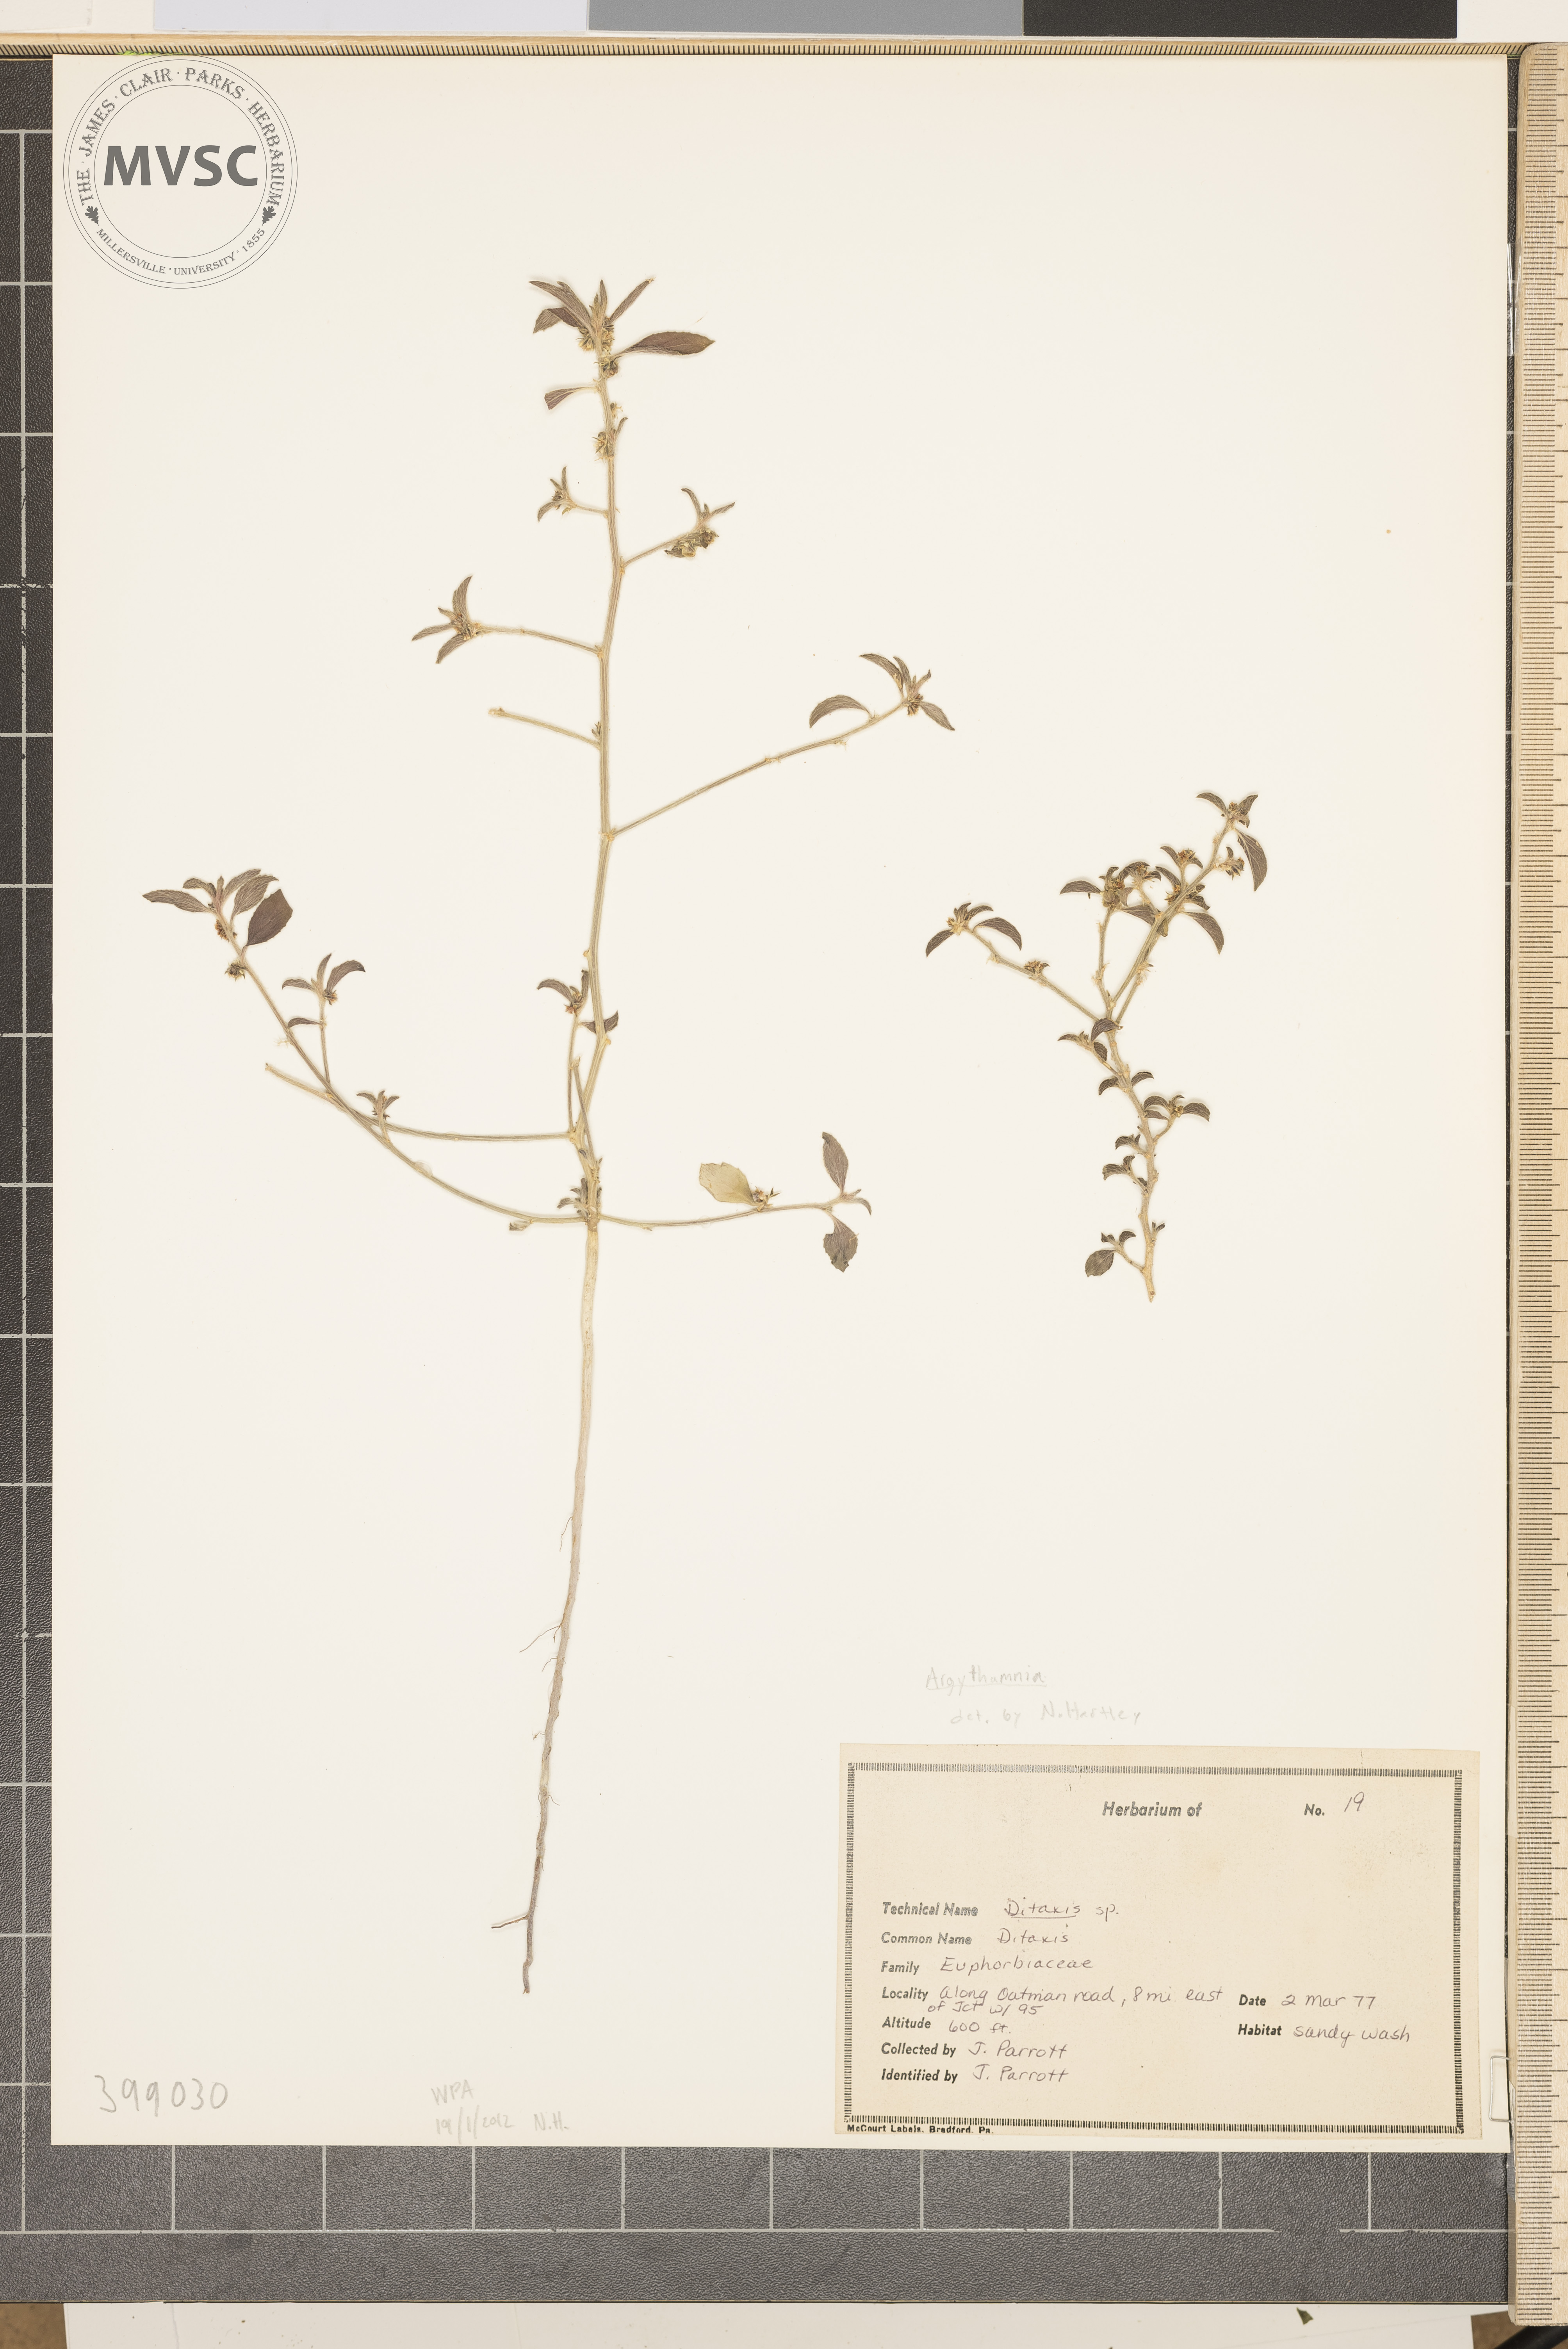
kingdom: Plantae
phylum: Tracheophyta
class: Magnoliopsida
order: Malpighiales
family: Euphorbiaceae
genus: Argythamnia
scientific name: Argythamnia
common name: Mexican poppy
